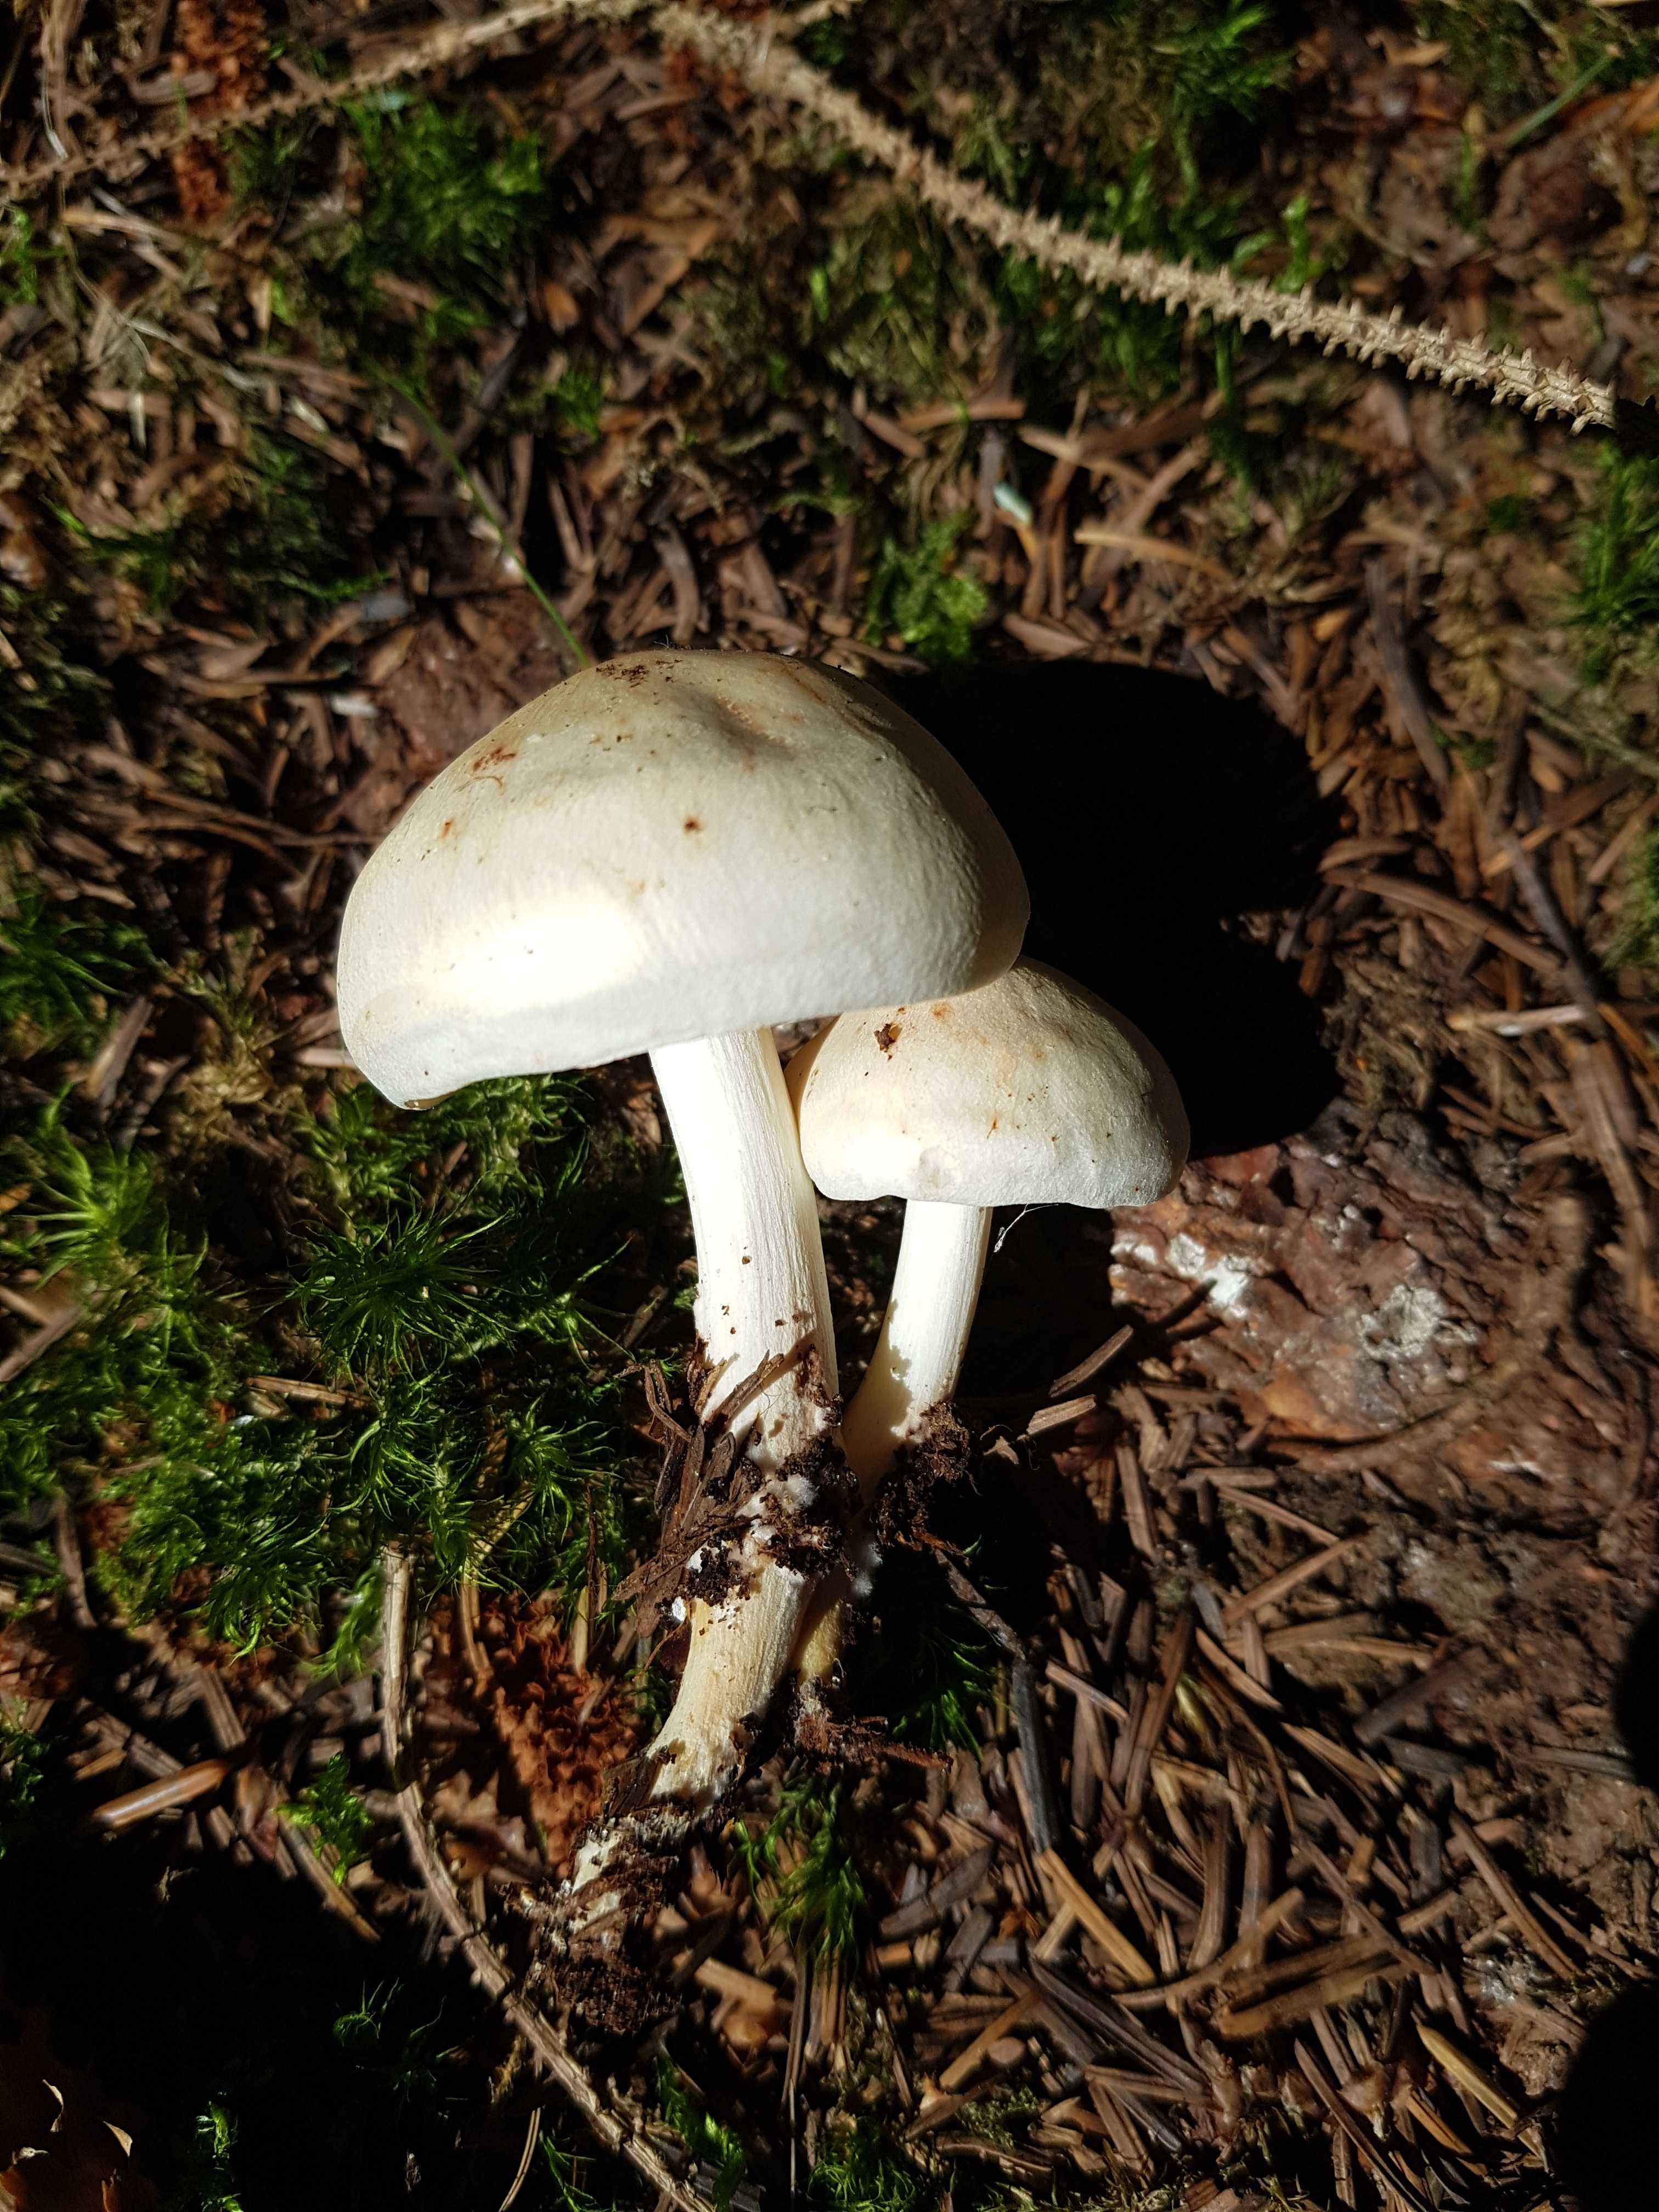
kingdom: Fungi
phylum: Basidiomycota
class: Agaricomycetes
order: Agaricales
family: Omphalotaceae
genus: Rhodocollybia
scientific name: Rhodocollybia maculata
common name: plettet fladhat
